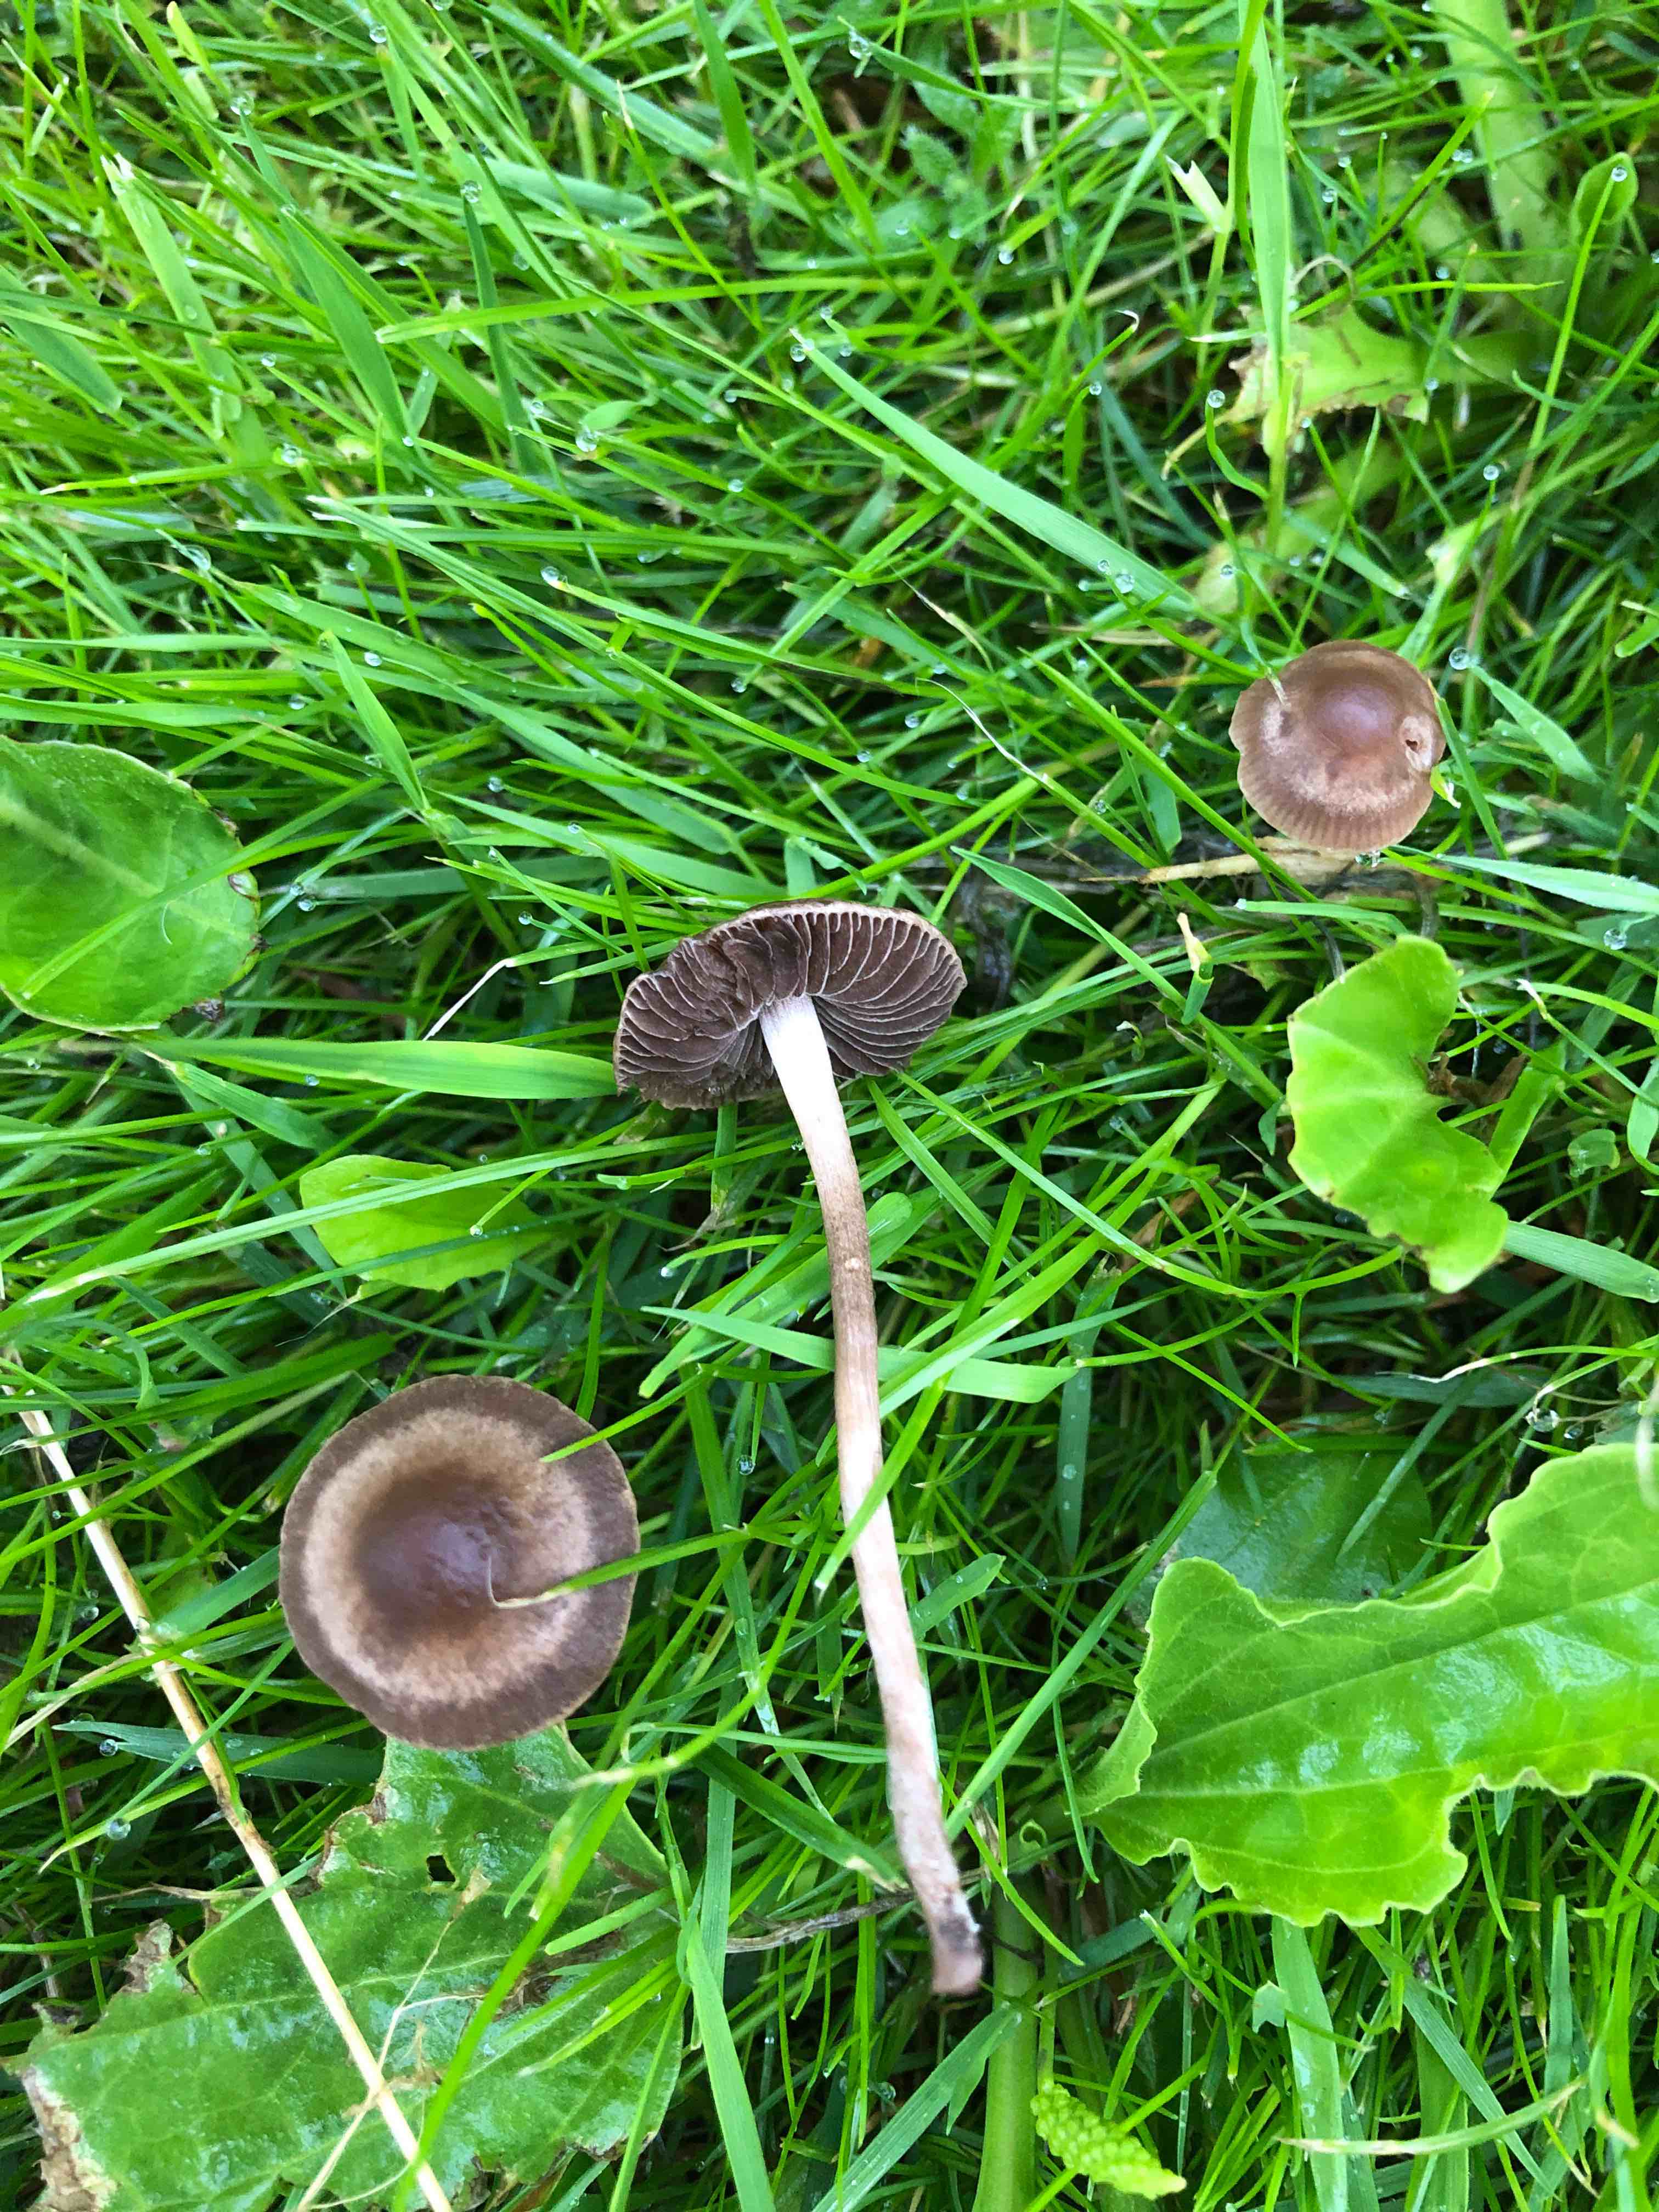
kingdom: Fungi
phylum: Basidiomycota
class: Agaricomycetes
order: Agaricales
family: Bolbitiaceae
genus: Panaeolina
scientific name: Panaeolina foenisecii
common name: høslætsvamp
